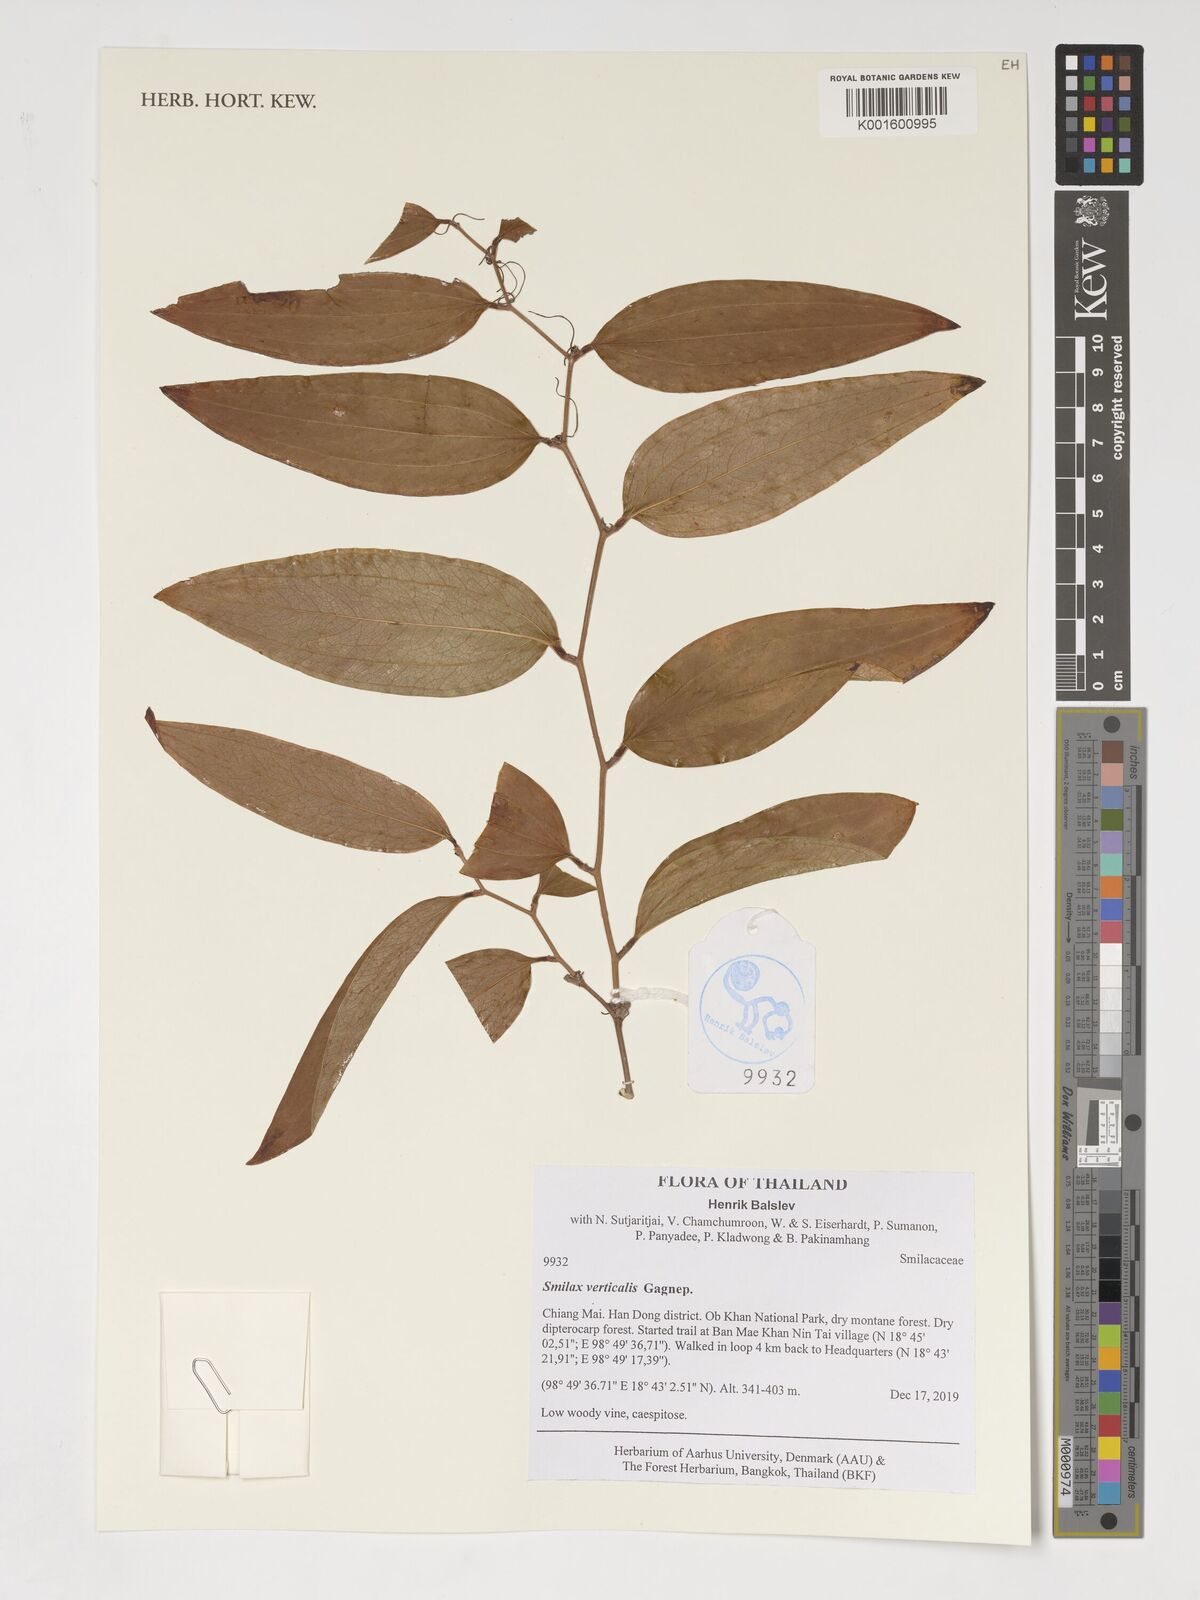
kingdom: Plantae
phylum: Tracheophyta
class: Liliopsida
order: Liliales
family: Smilacaceae
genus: Smilax
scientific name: Smilax verticalis
